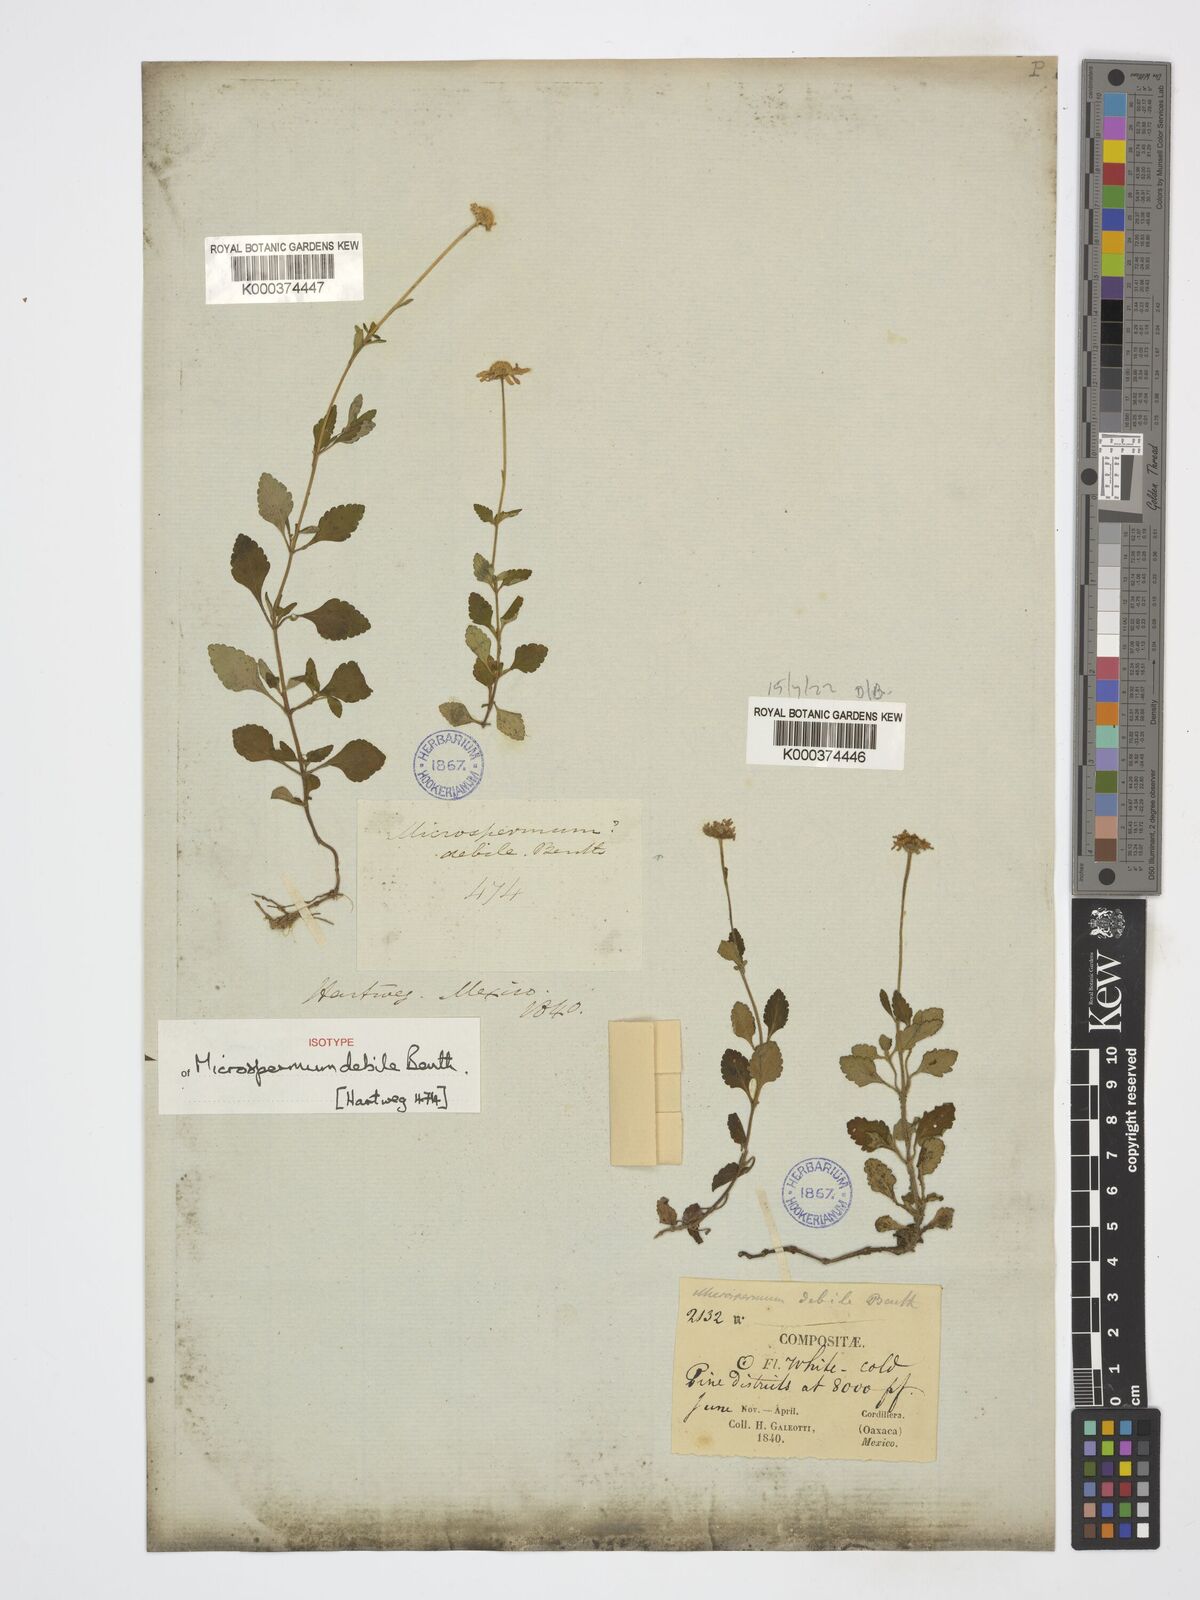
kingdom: Plantae
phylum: Tracheophyta
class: Magnoliopsida
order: Asterales
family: Asteraceae
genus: Microspermum
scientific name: Microspermum debile
